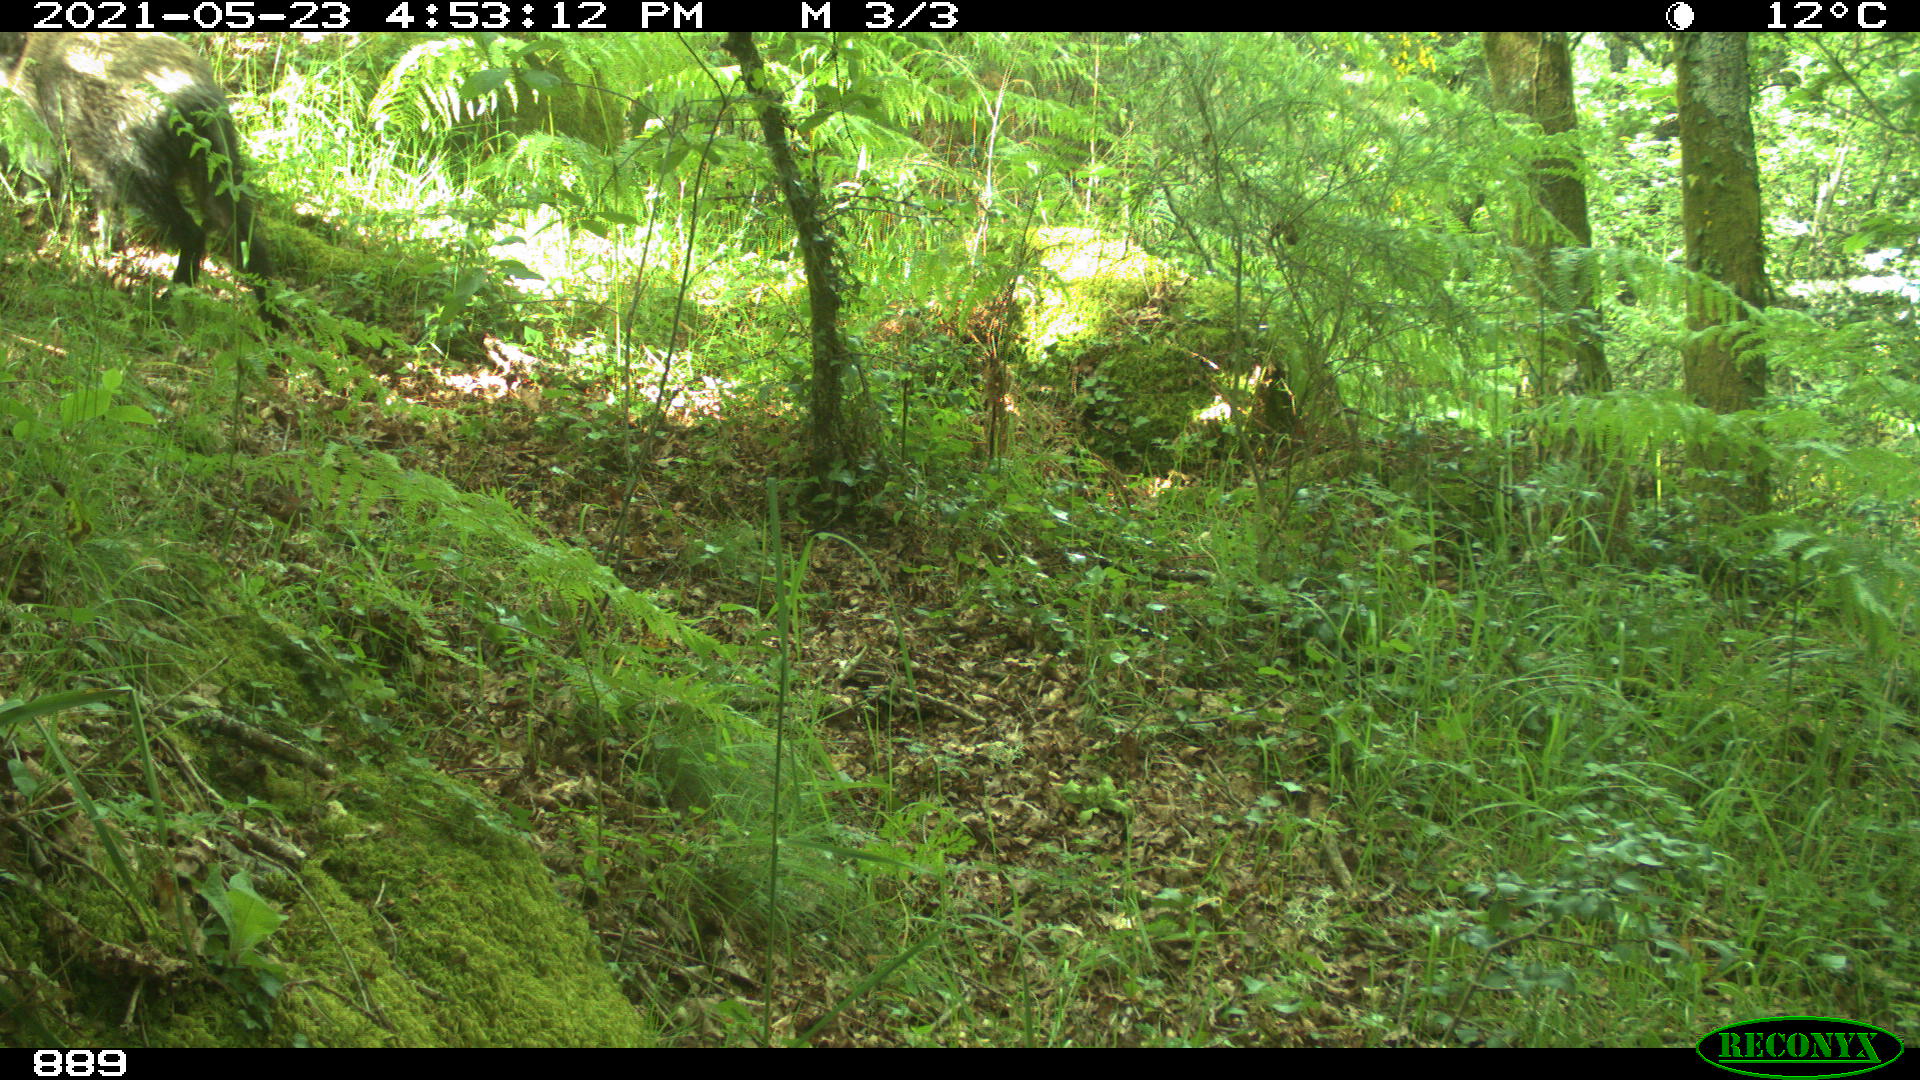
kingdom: Animalia
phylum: Chordata
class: Mammalia
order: Artiodactyla
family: Suidae
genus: Sus
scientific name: Sus scrofa
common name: Wild boar
